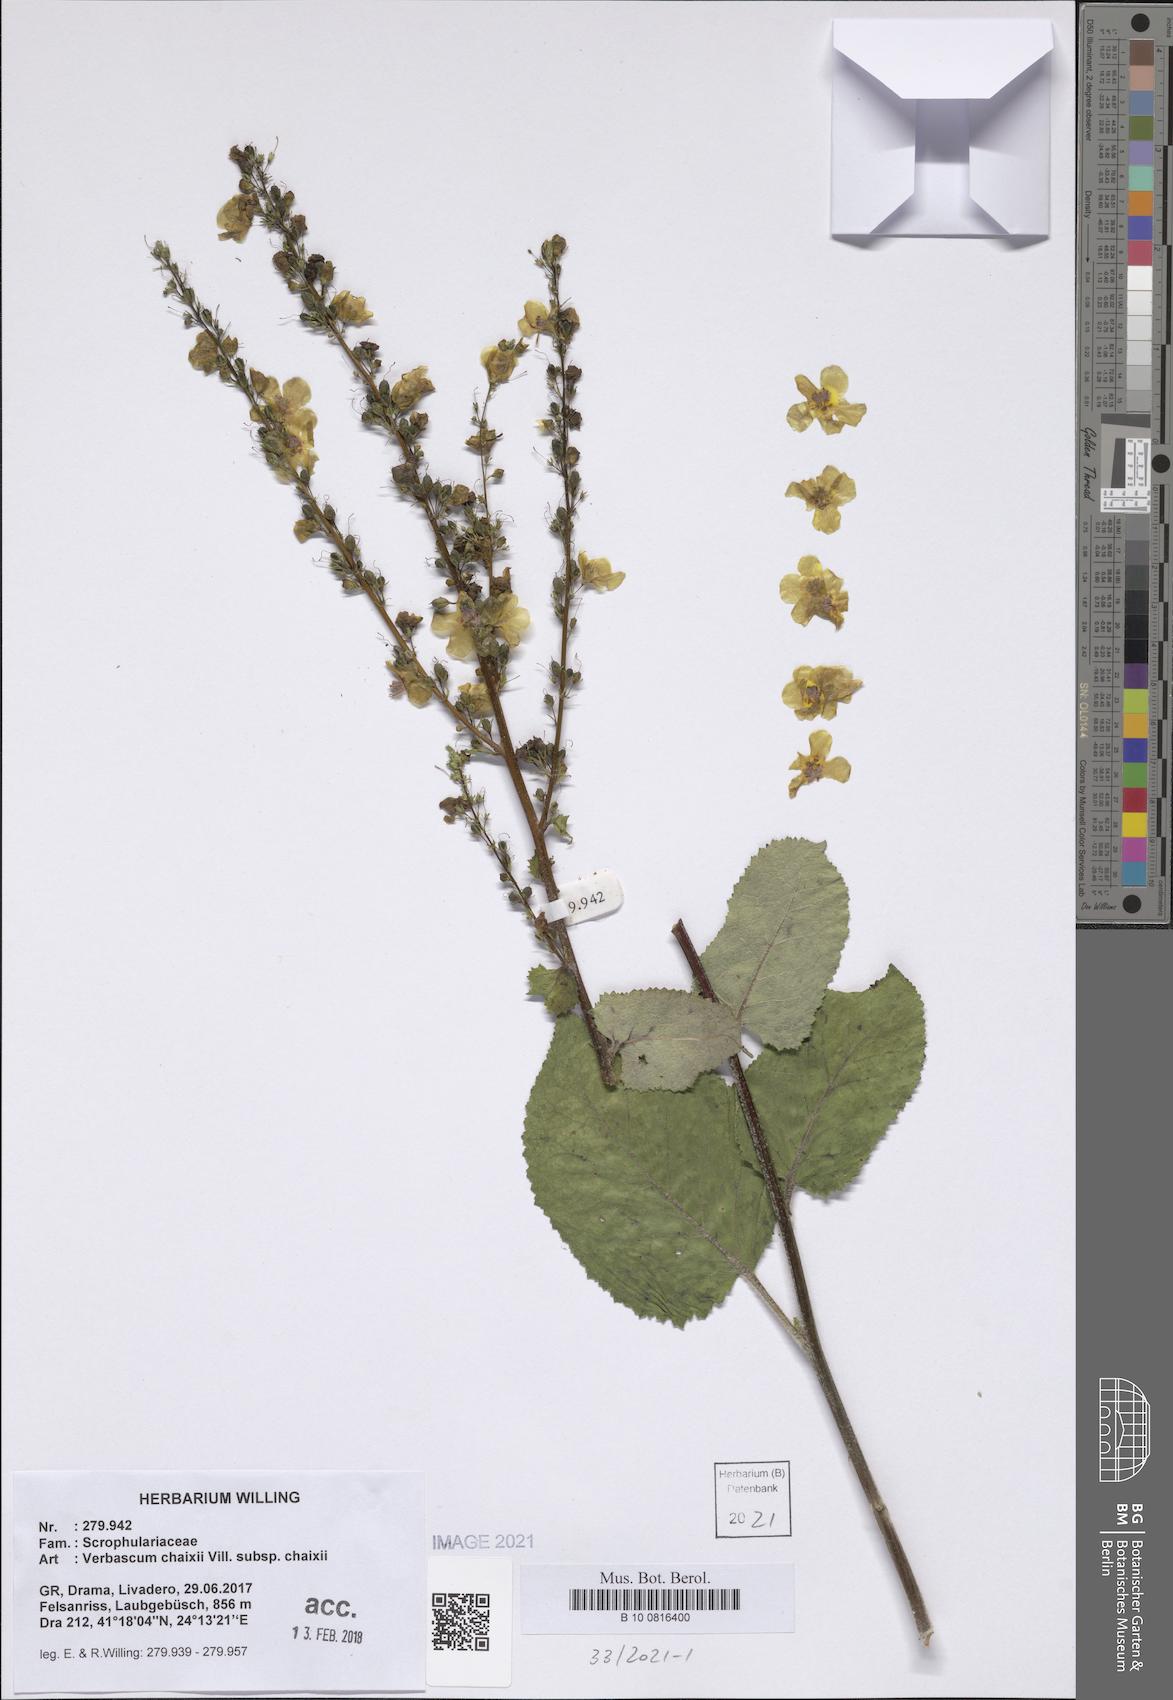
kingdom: Plantae
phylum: Tracheophyta
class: Magnoliopsida
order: Lamiales
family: Scrophulariaceae
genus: Verbascum
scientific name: Verbascum glabratum
